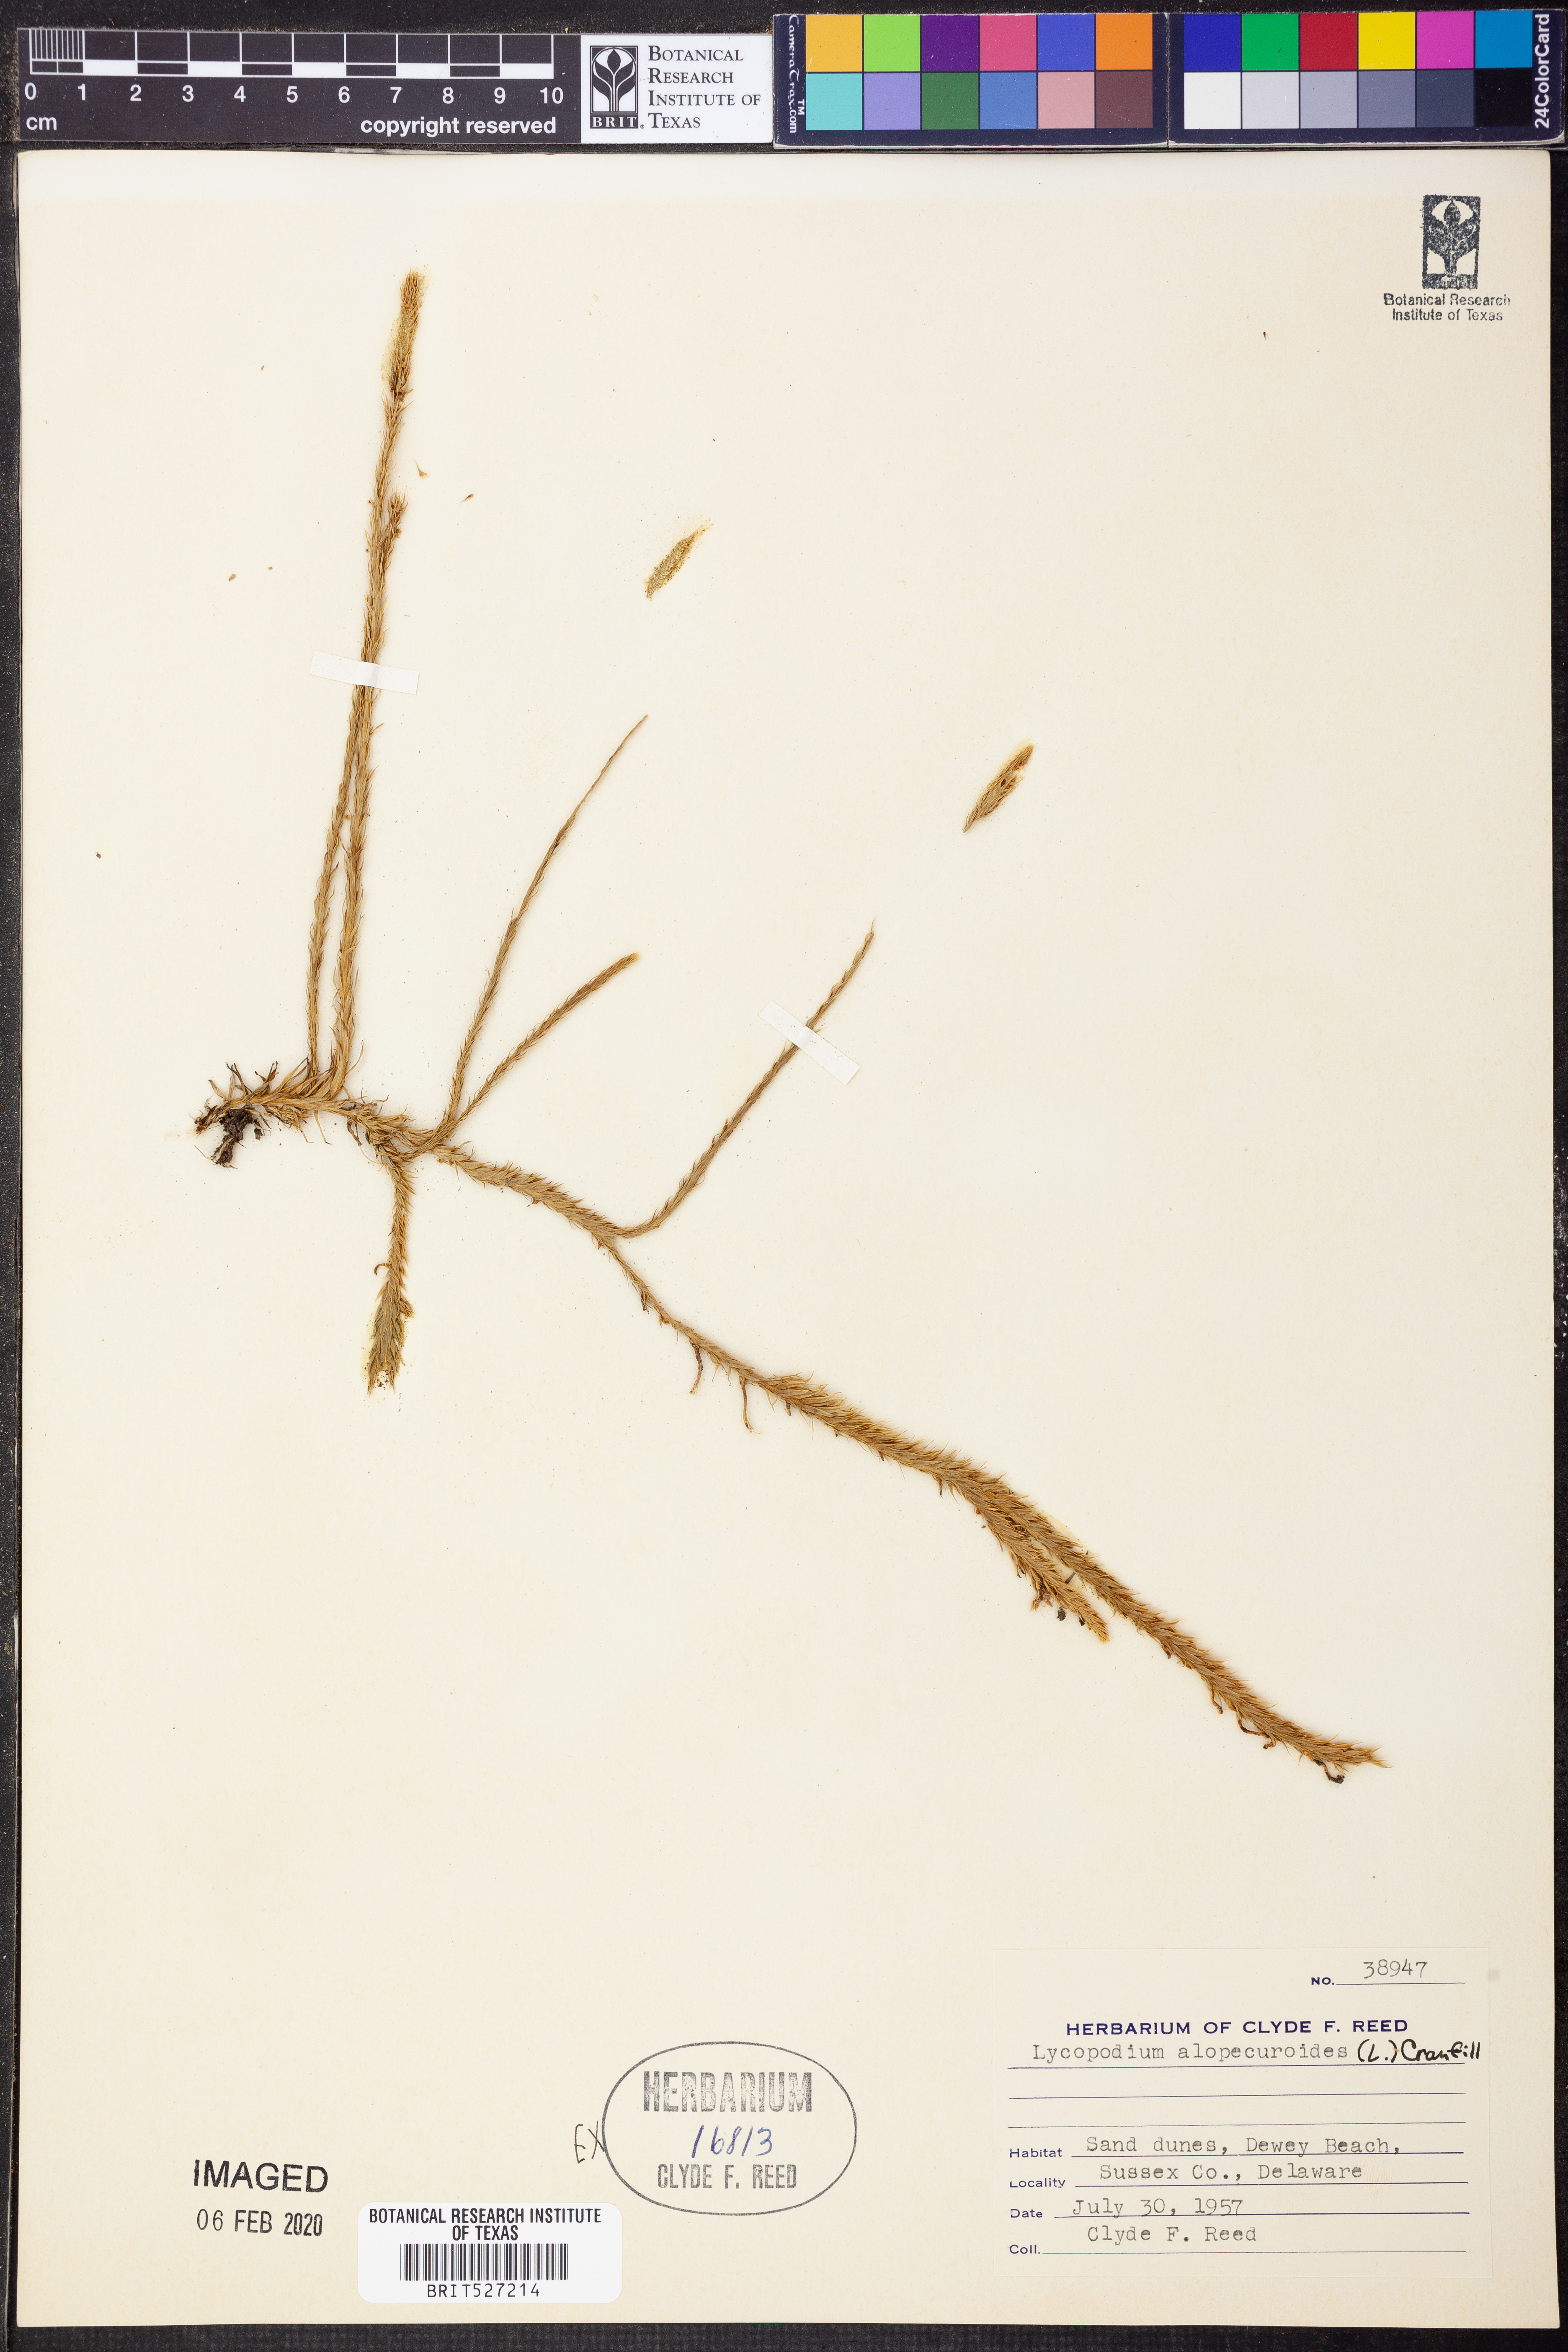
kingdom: Plantae
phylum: Tracheophyta
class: Lycopodiopsida
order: Lycopodiales
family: Lycopodiaceae
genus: Lycopodiella
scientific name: Lycopodiella alopecuroides
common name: Foxtail clubmoss
